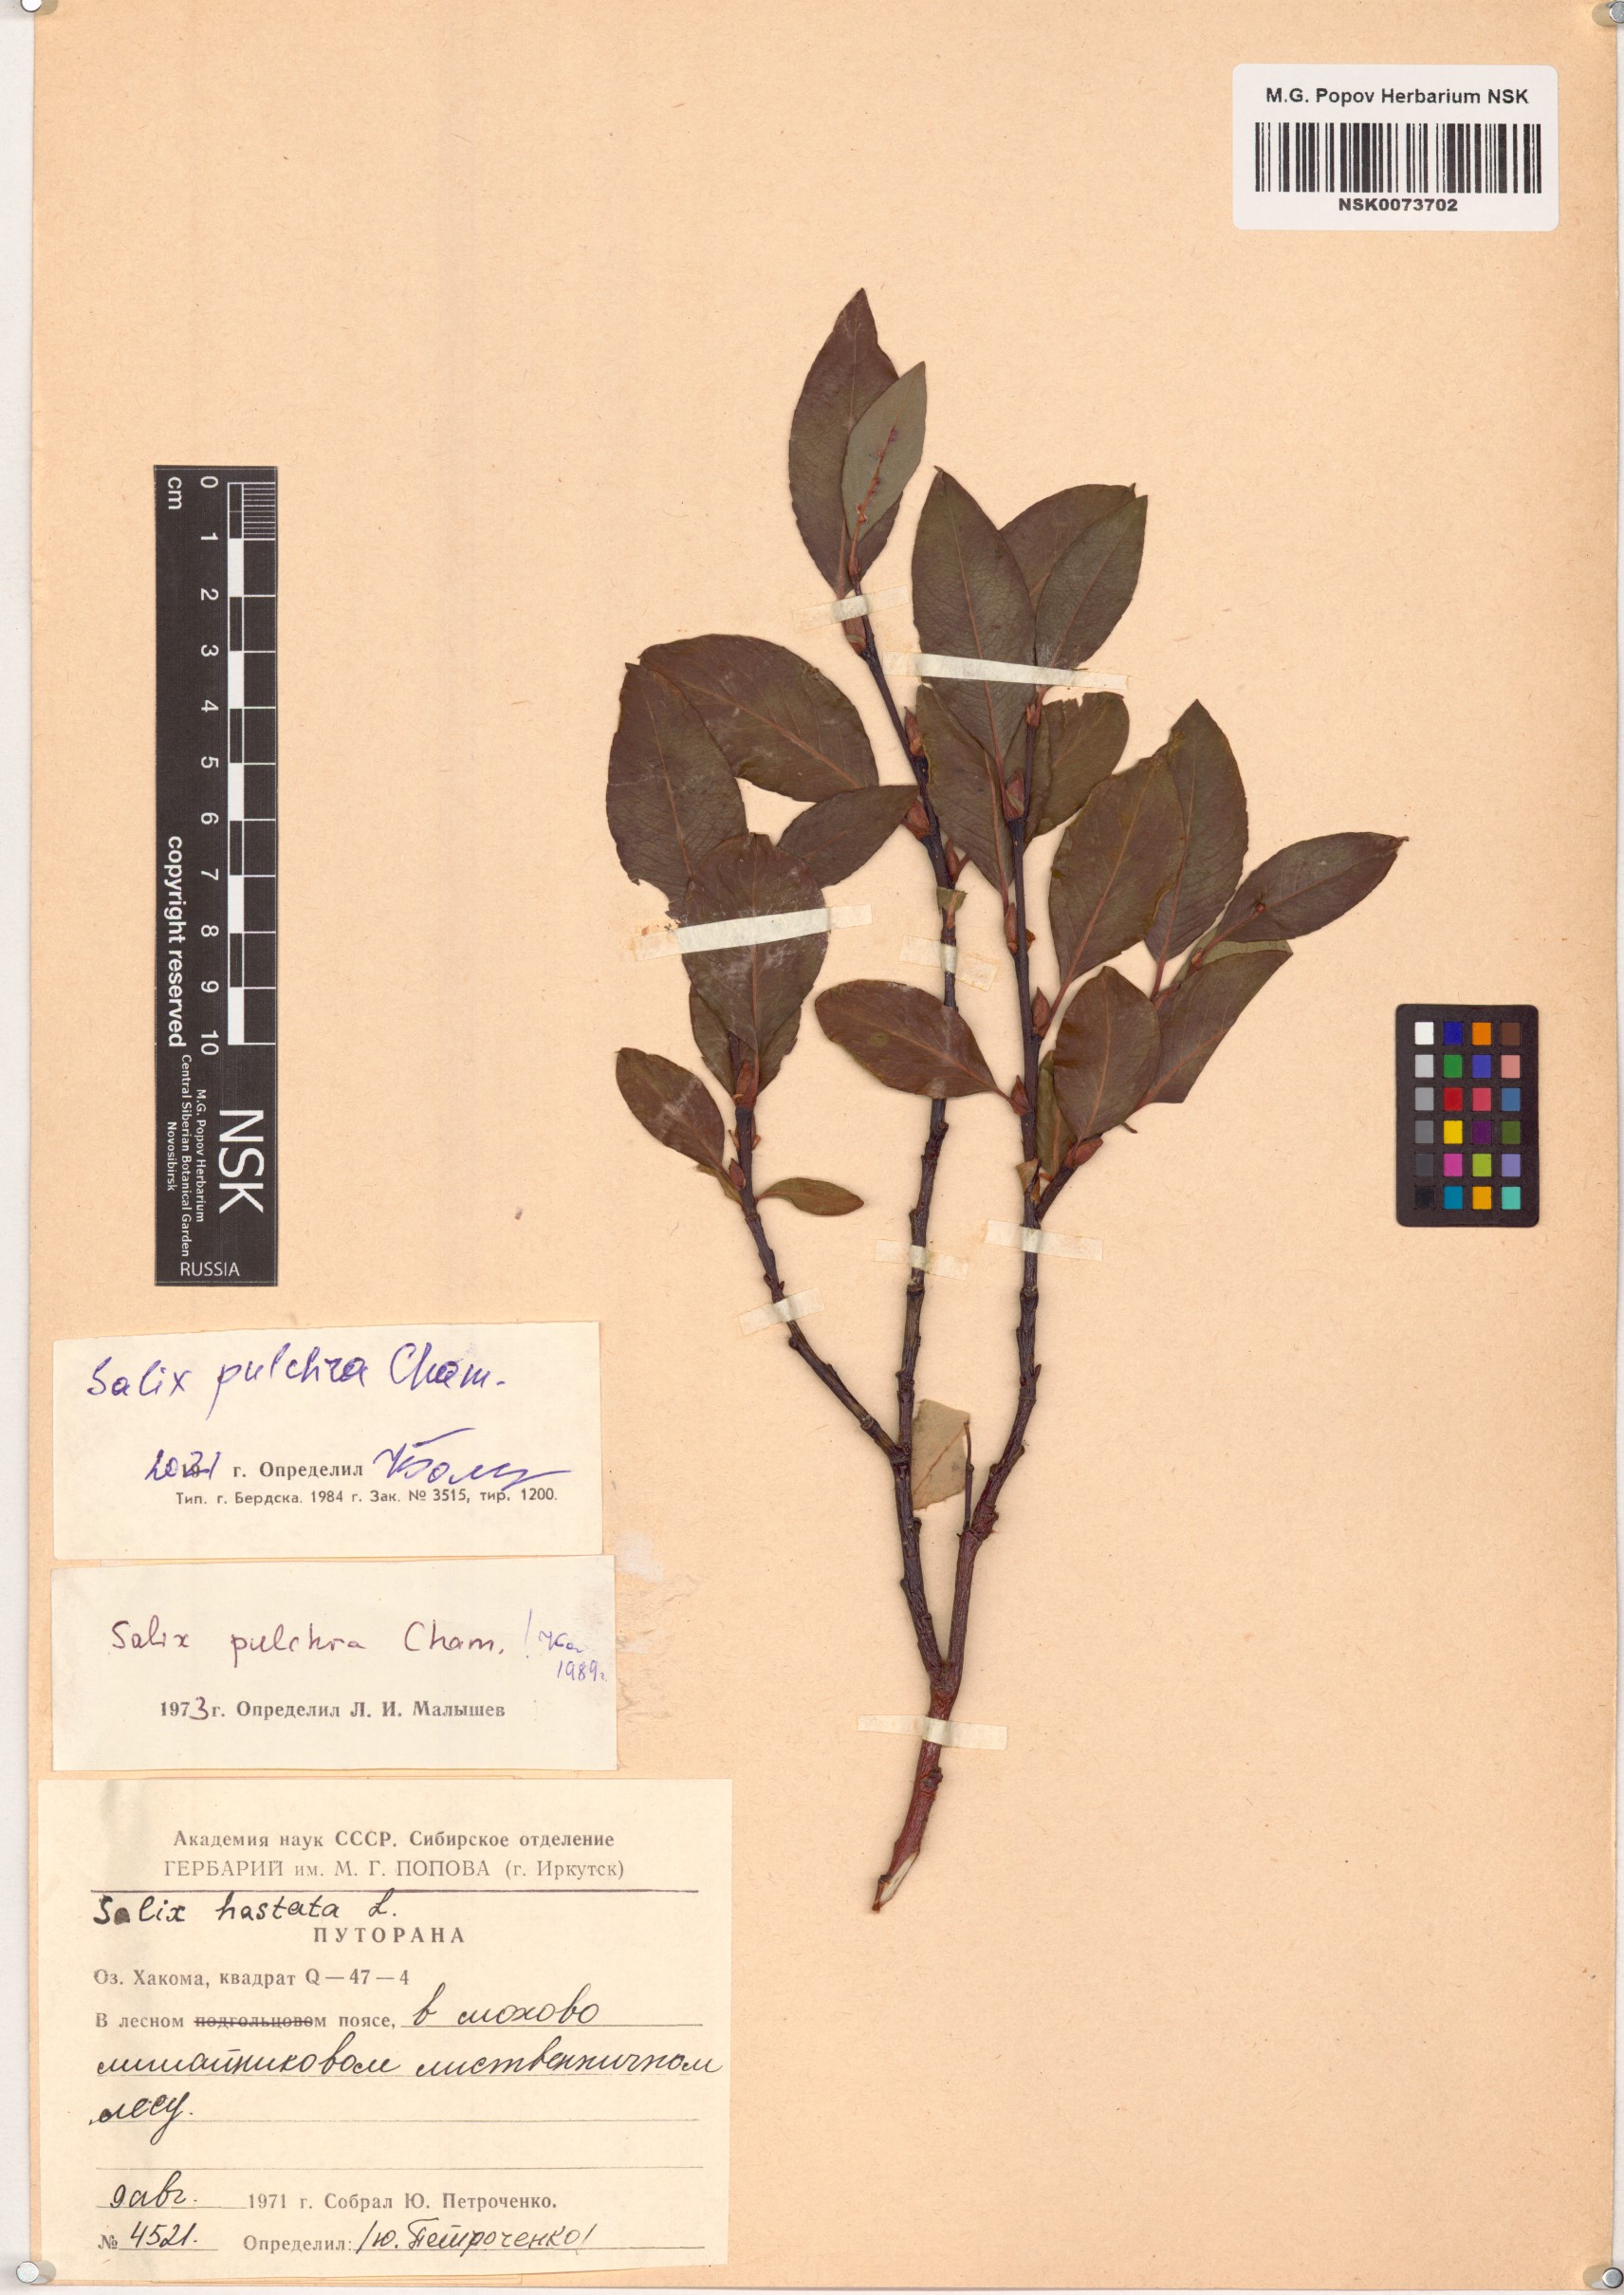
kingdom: Plantae
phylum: Tracheophyta
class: Magnoliopsida
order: Malpighiales
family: Salicaceae
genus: Salix
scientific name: Salix pulchra
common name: Diamond-leaved willow
